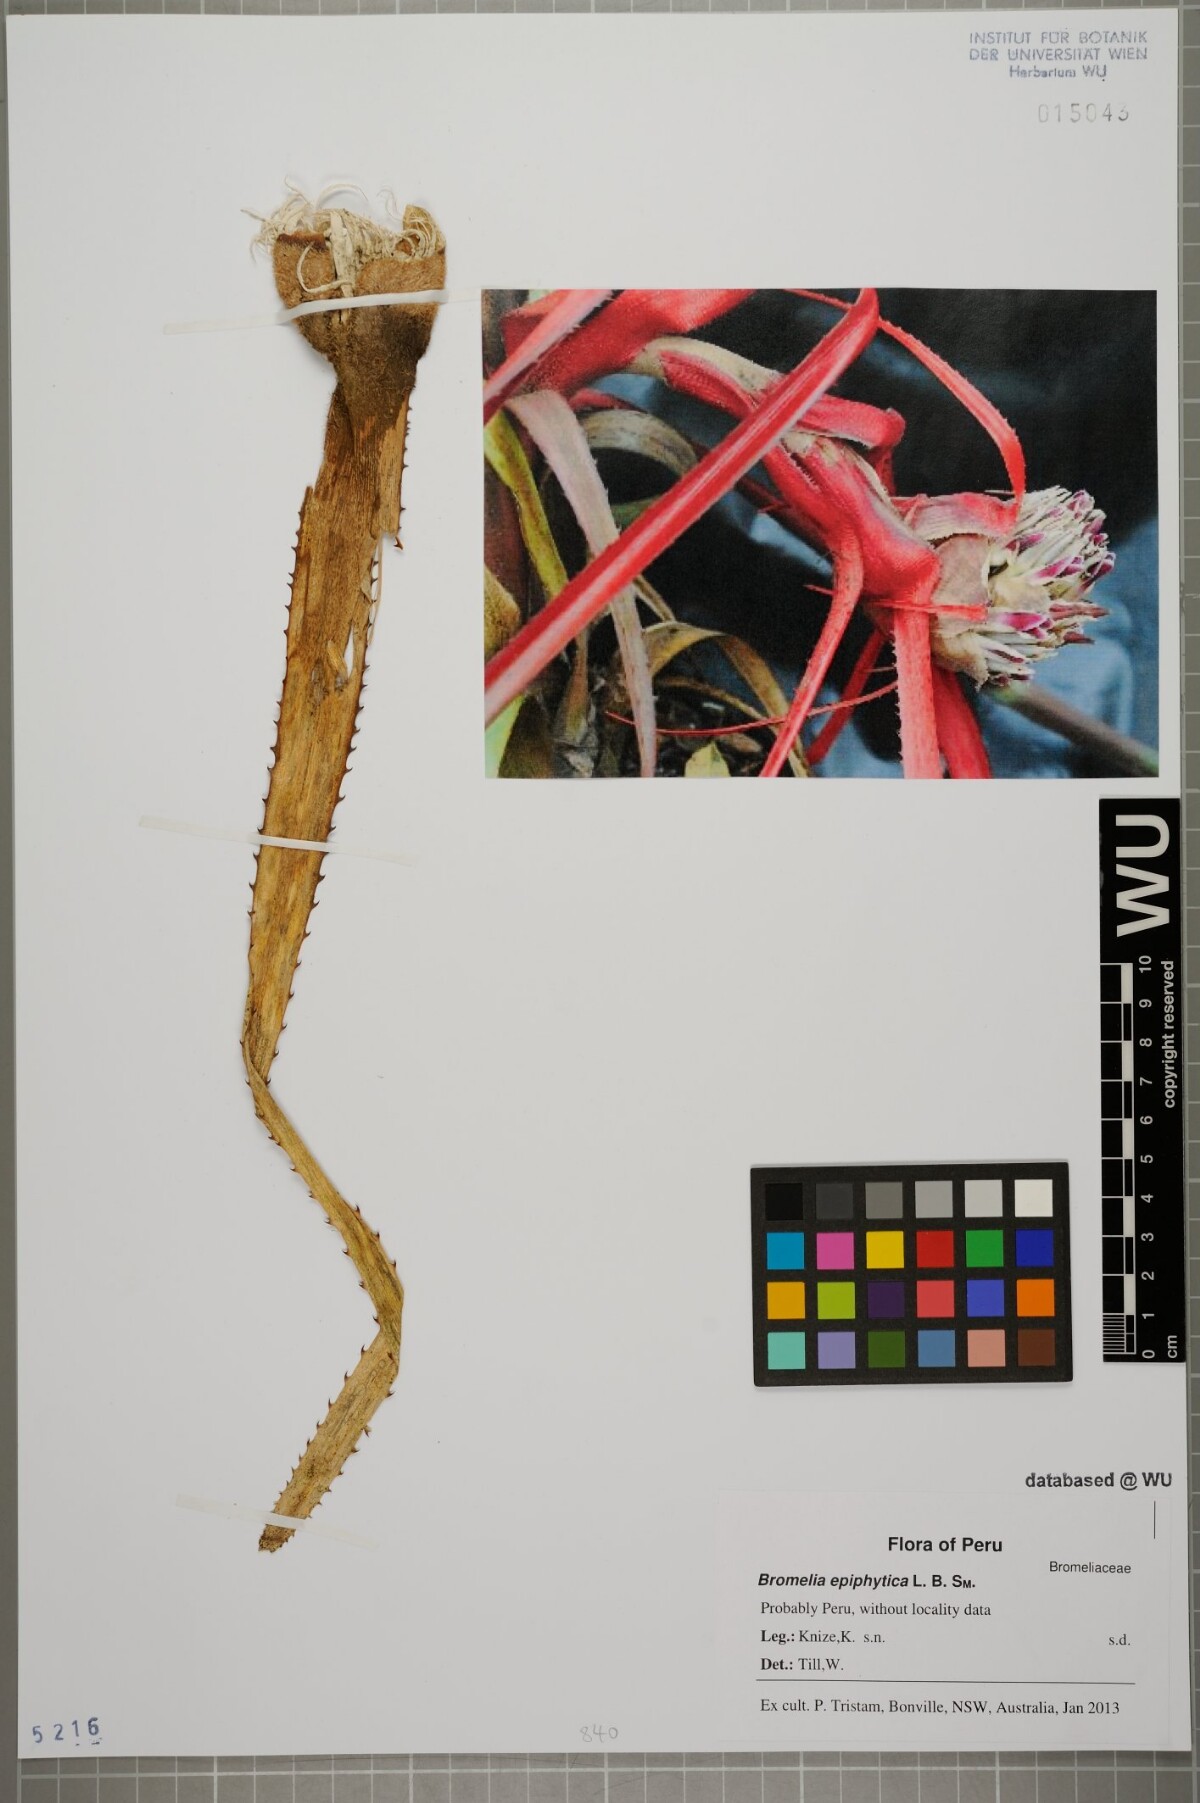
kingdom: Plantae
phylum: Tracheophyta
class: Liliopsida
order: Poales
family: Bromeliaceae
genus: Bromelia
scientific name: Bromelia epiphytica
